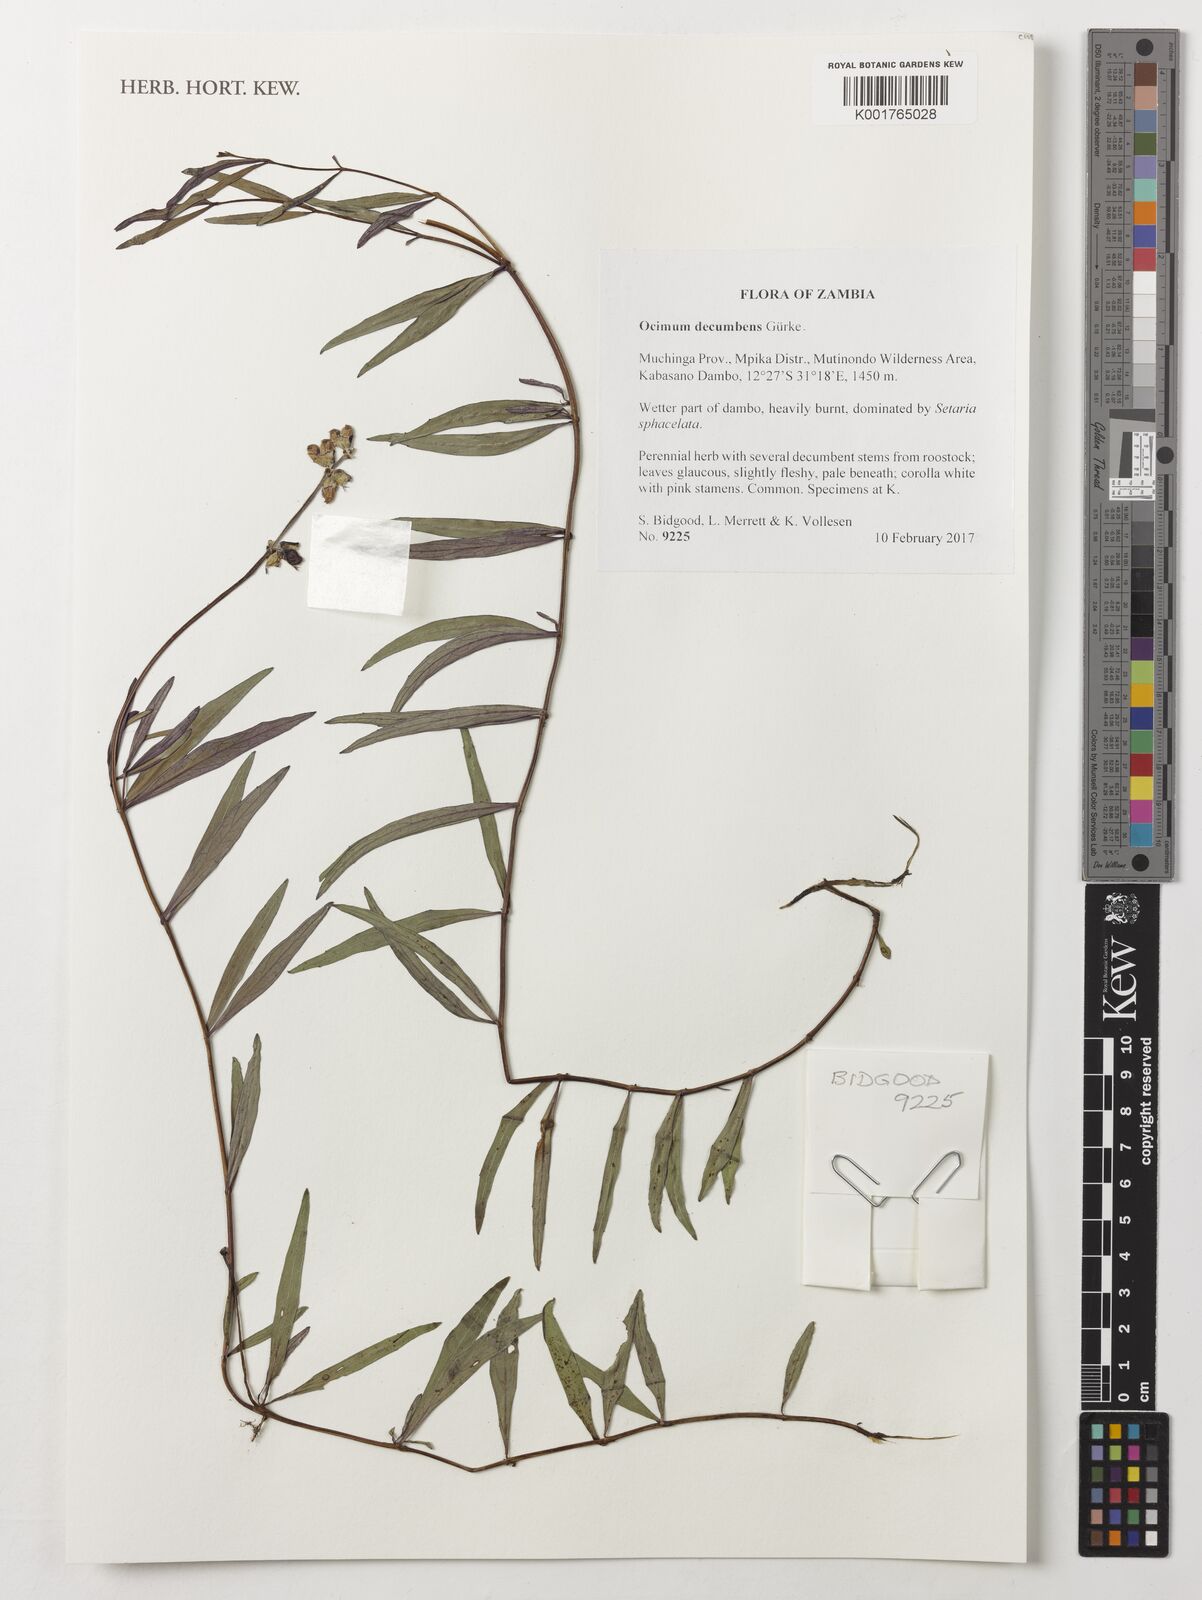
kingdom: Plantae
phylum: Tracheophyta
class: Magnoliopsida
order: Lamiales
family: Lamiaceae
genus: Ocimum
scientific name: Ocimum decumbens
